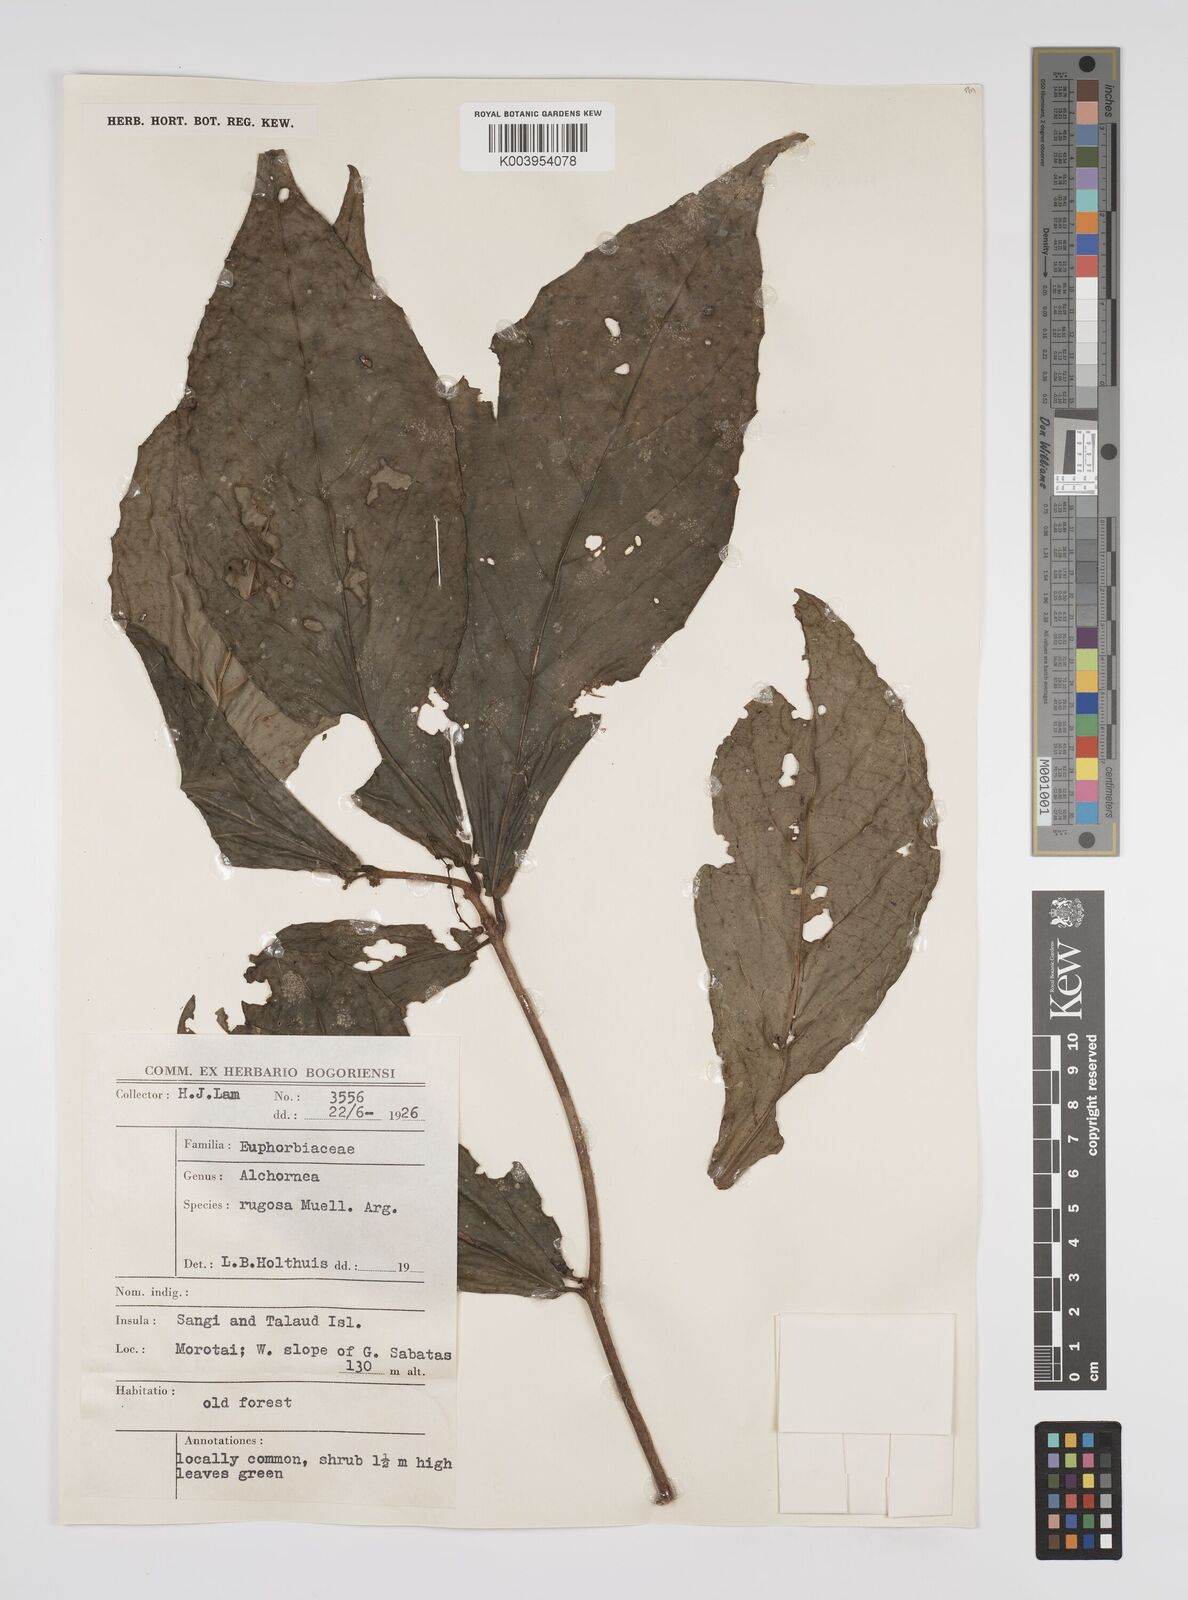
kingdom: Plantae
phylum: Tracheophyta
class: Magnoliopsida
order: Malpighiales
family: Euphorbiaceae
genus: Alchornea
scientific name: Alchornea rugosa
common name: Alchorntree
